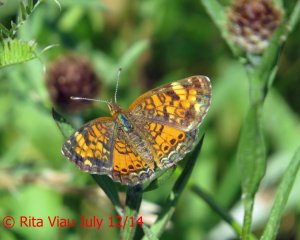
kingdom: Animalia
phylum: Arthropoda
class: Insecta
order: Lepidoptera
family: Nymphalidae
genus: Phyciodes
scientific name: Phyciodes tharos
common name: Northern Crescent
